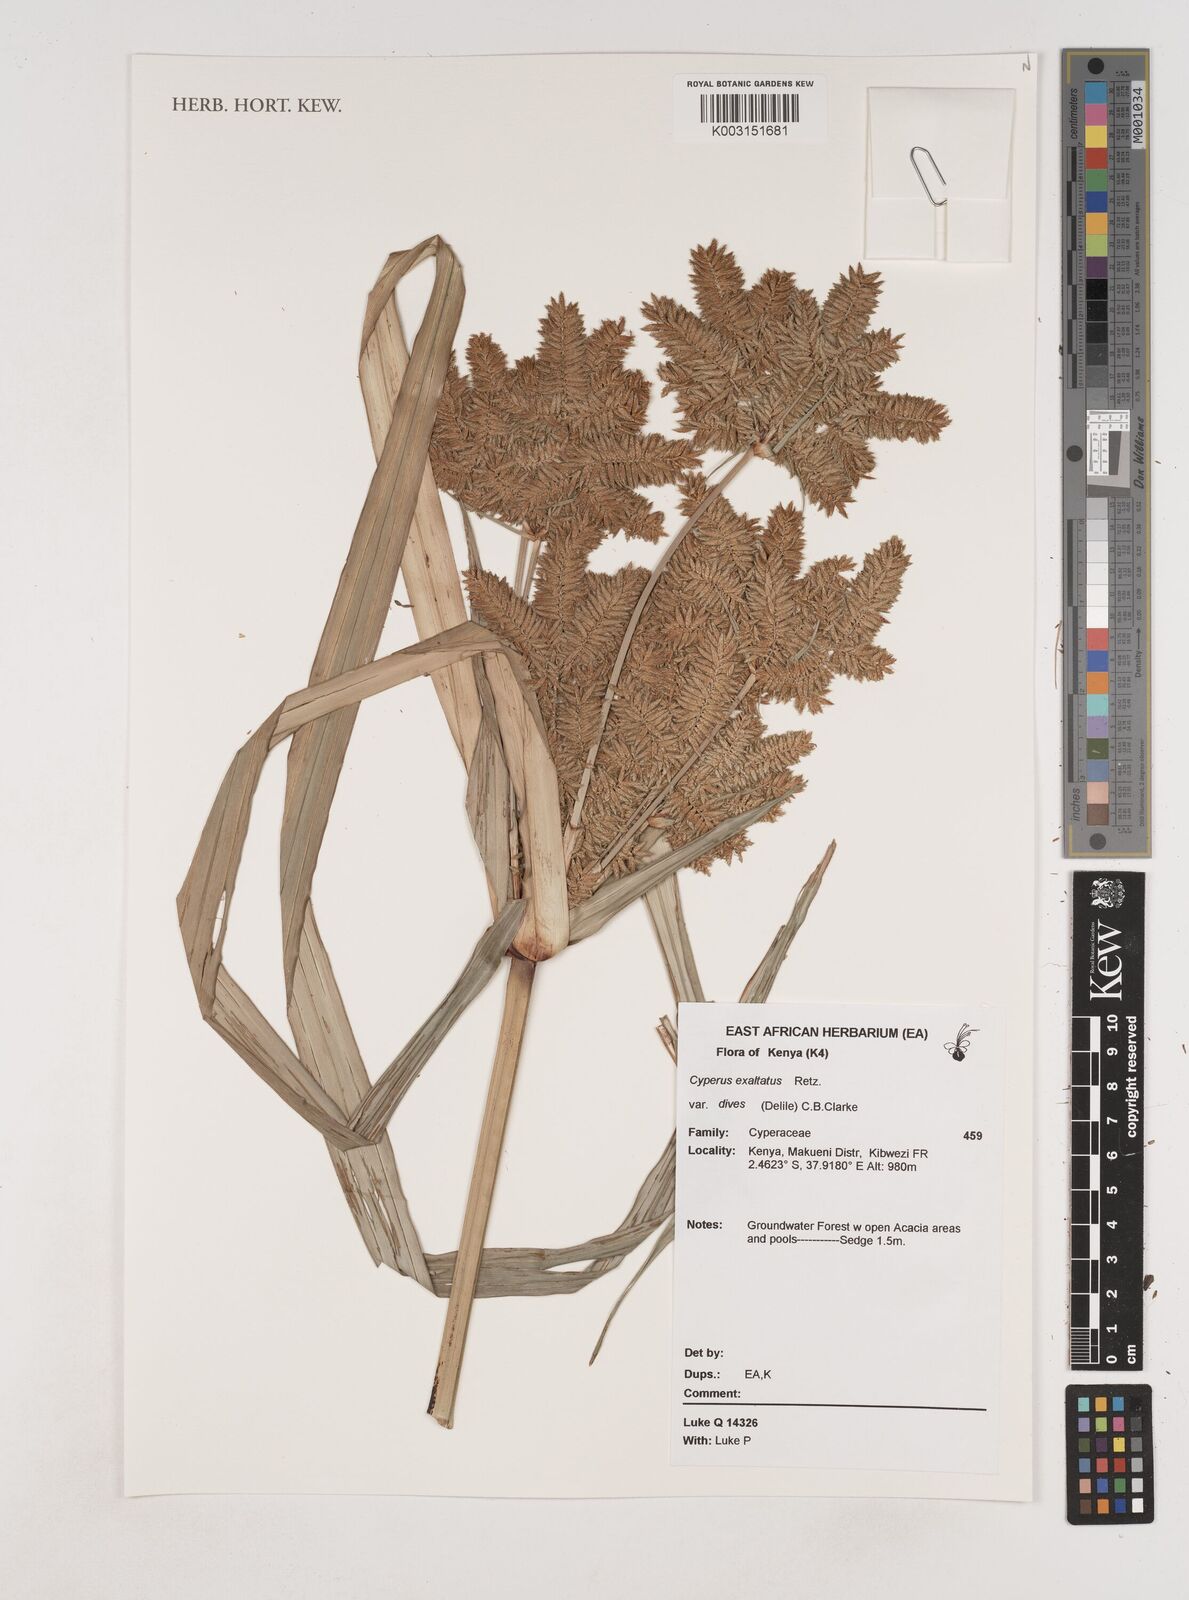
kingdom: Plantae
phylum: Tracheophyta
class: Liliopsida
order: Poales
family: Cyperaceae
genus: Cyperus
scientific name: Cyperus exaltatus
